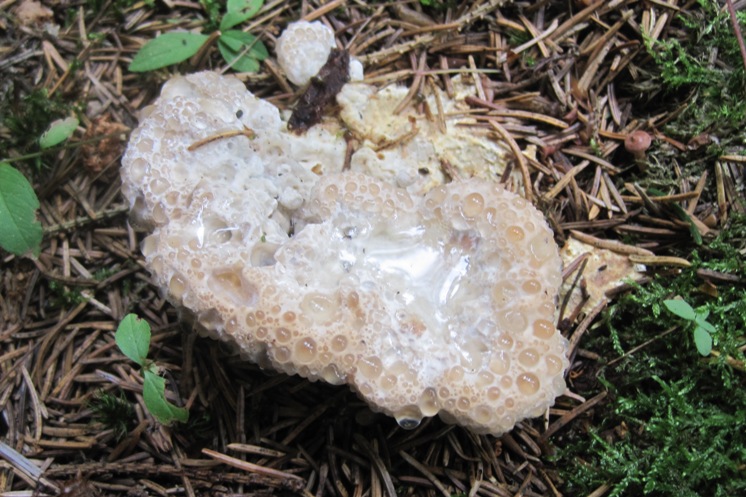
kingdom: Fungi
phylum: Basidiomycota
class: Agaricomycetes
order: Polyporales
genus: Calcipostia
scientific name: Calcipostia guttulata
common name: dråbe-kødporesvamp
